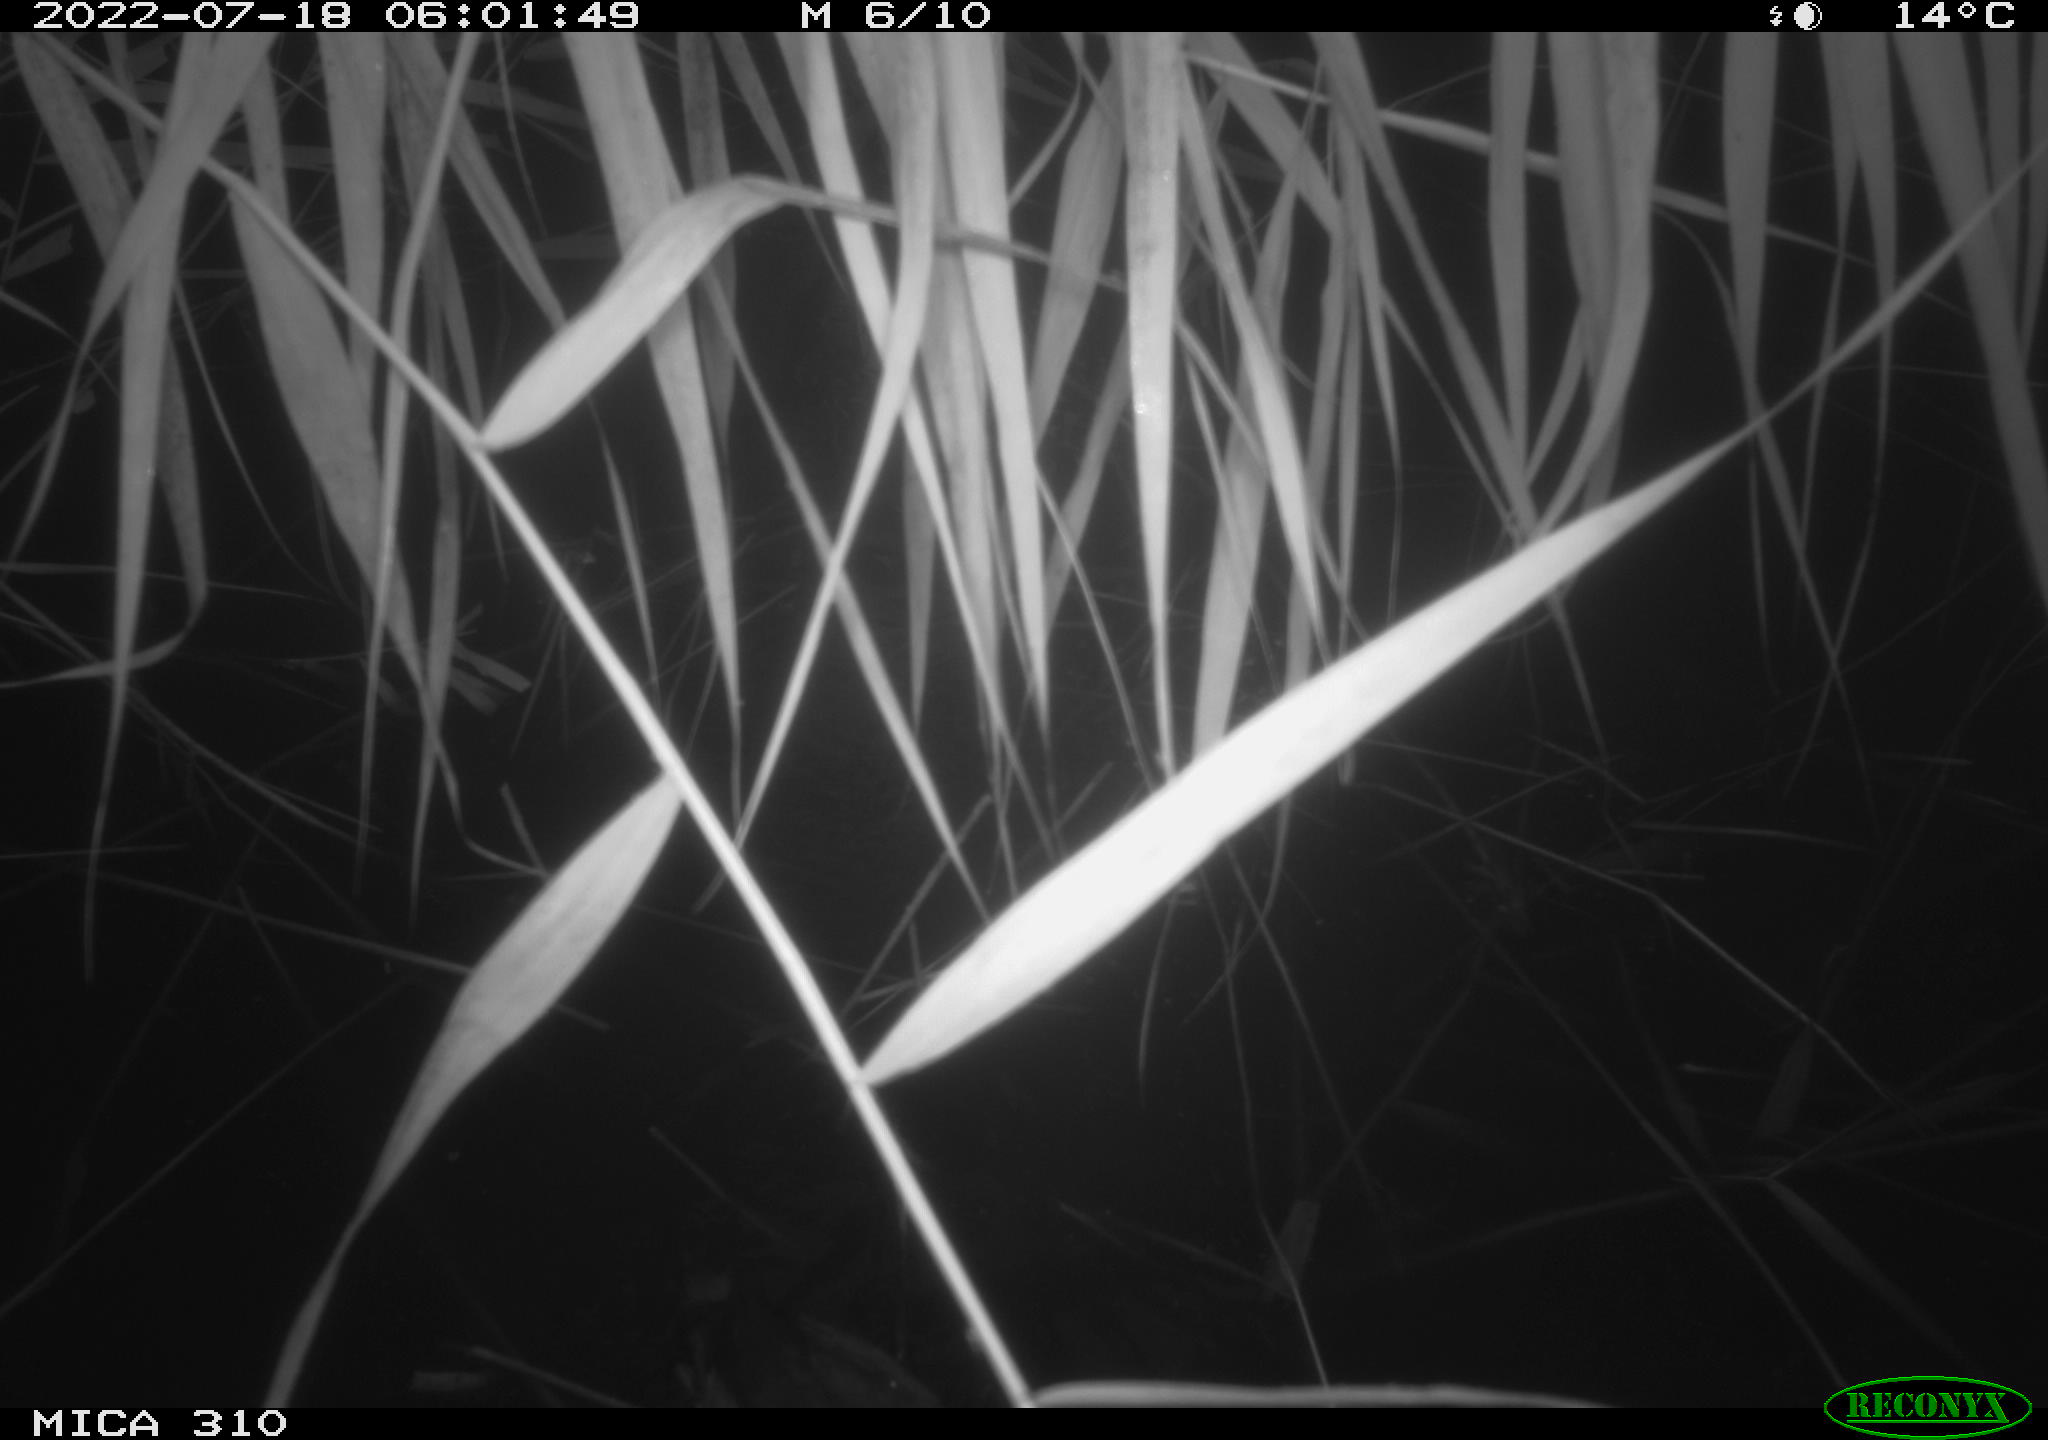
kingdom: Animalia
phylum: Chordata
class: Aves
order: Gruiformes
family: Rallidae
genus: Fulica
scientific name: Fulica atra
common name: Eurasian coot
